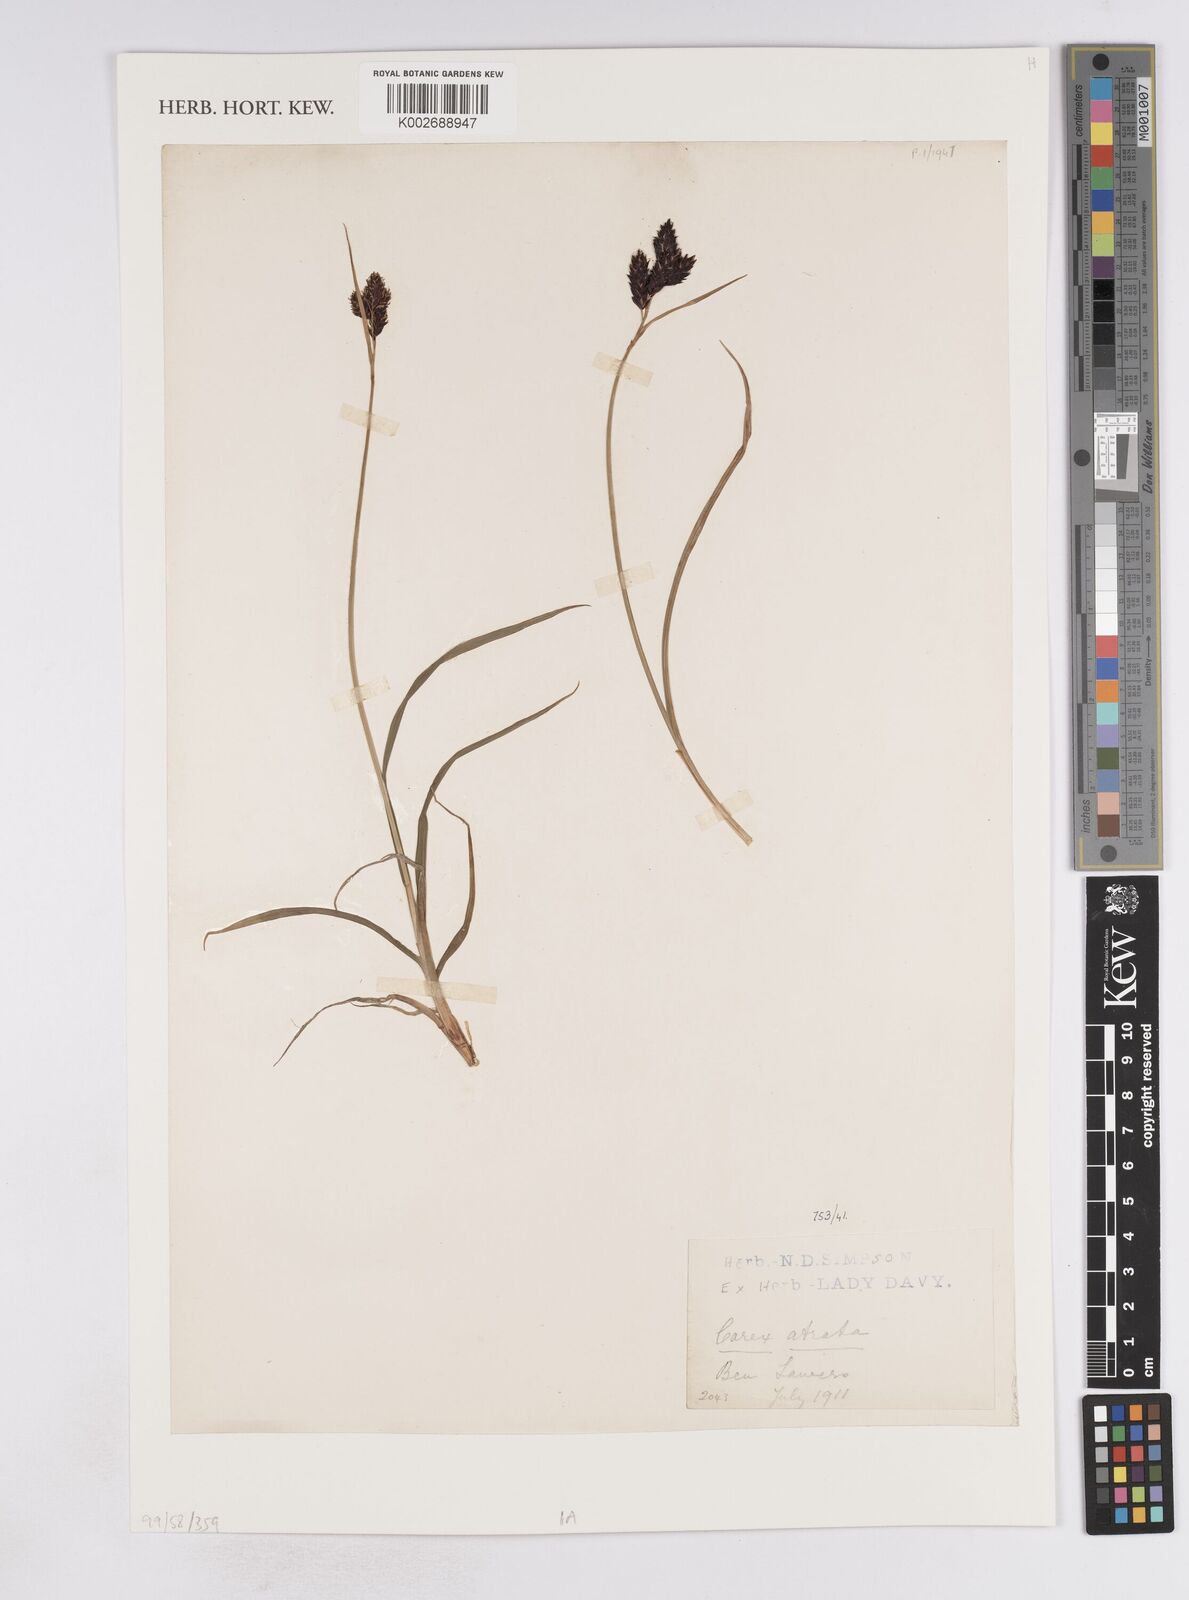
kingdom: Plantae
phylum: Tracheophyta
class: Liliopsida
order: Poales
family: Cyperaceae
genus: Carex
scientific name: Carex atrata
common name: Black alpine sedge
